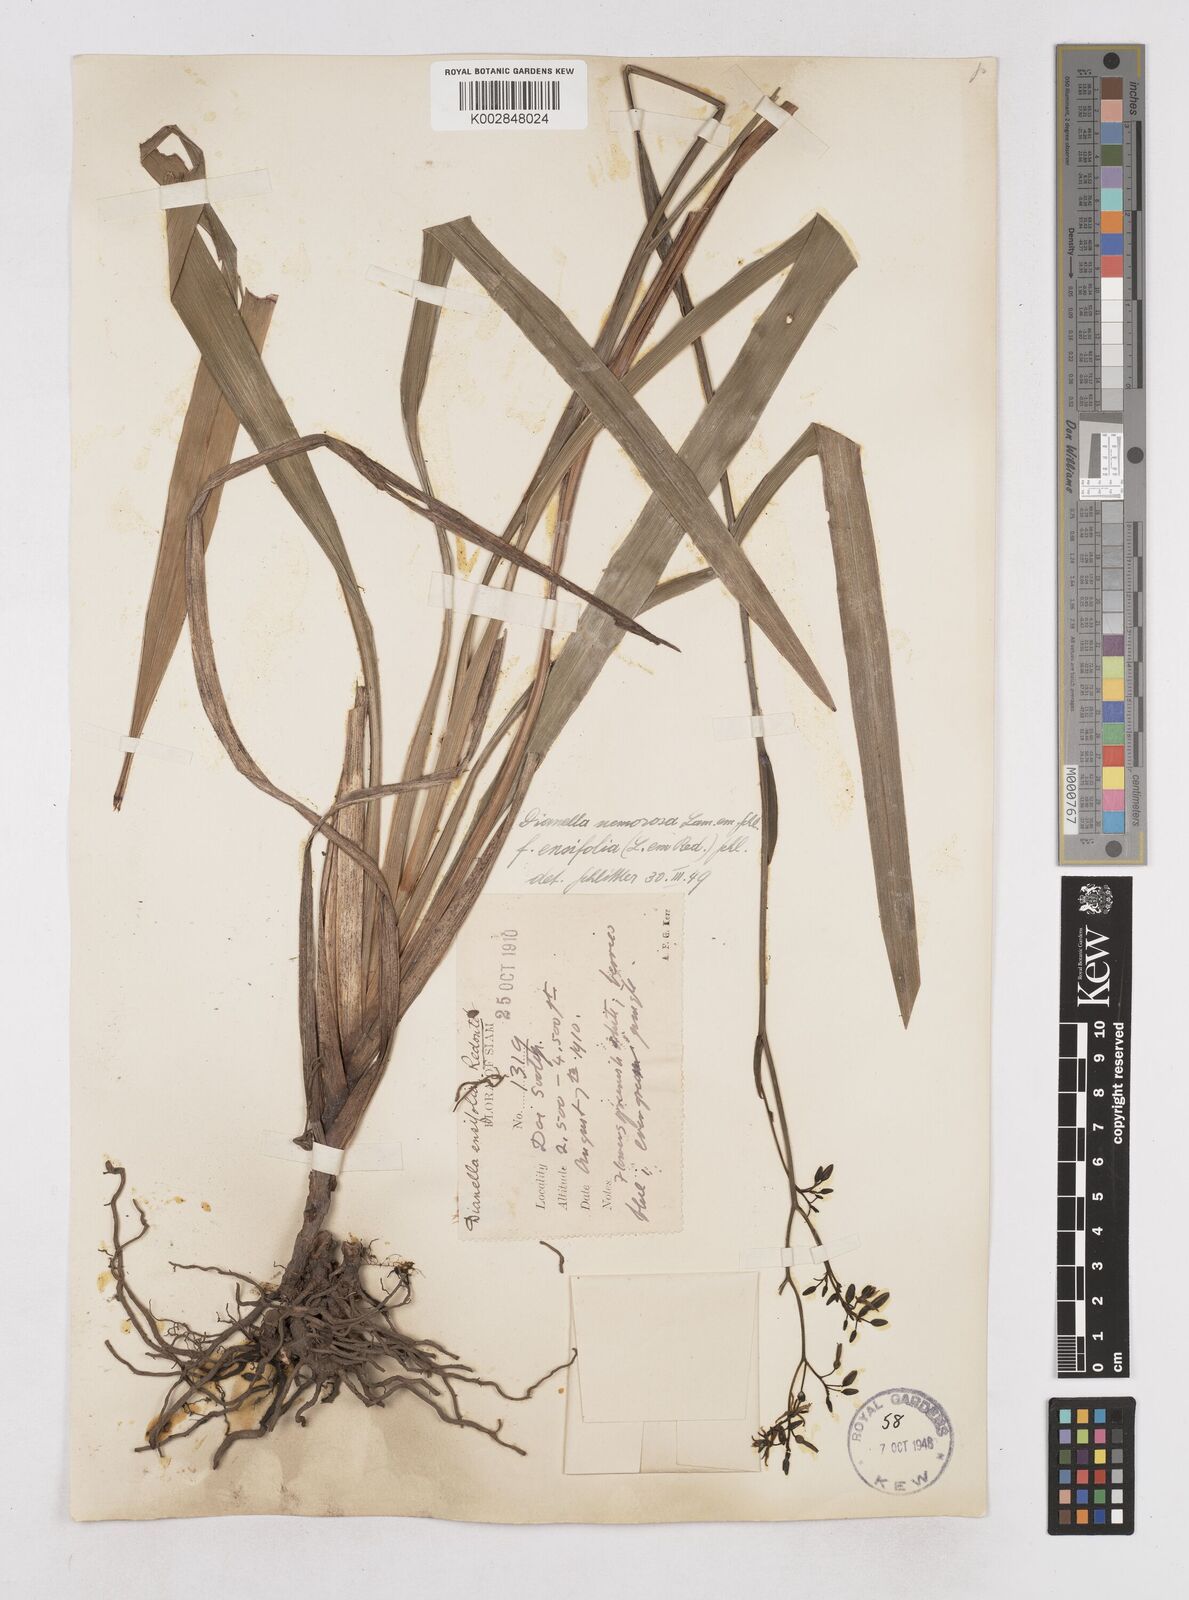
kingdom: Plantae
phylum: Tracheophyta
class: Liliopsida
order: Asparagales
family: Asphodelaceae
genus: Dianella
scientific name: Dianella ensifolia
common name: New zealand lilyplant
